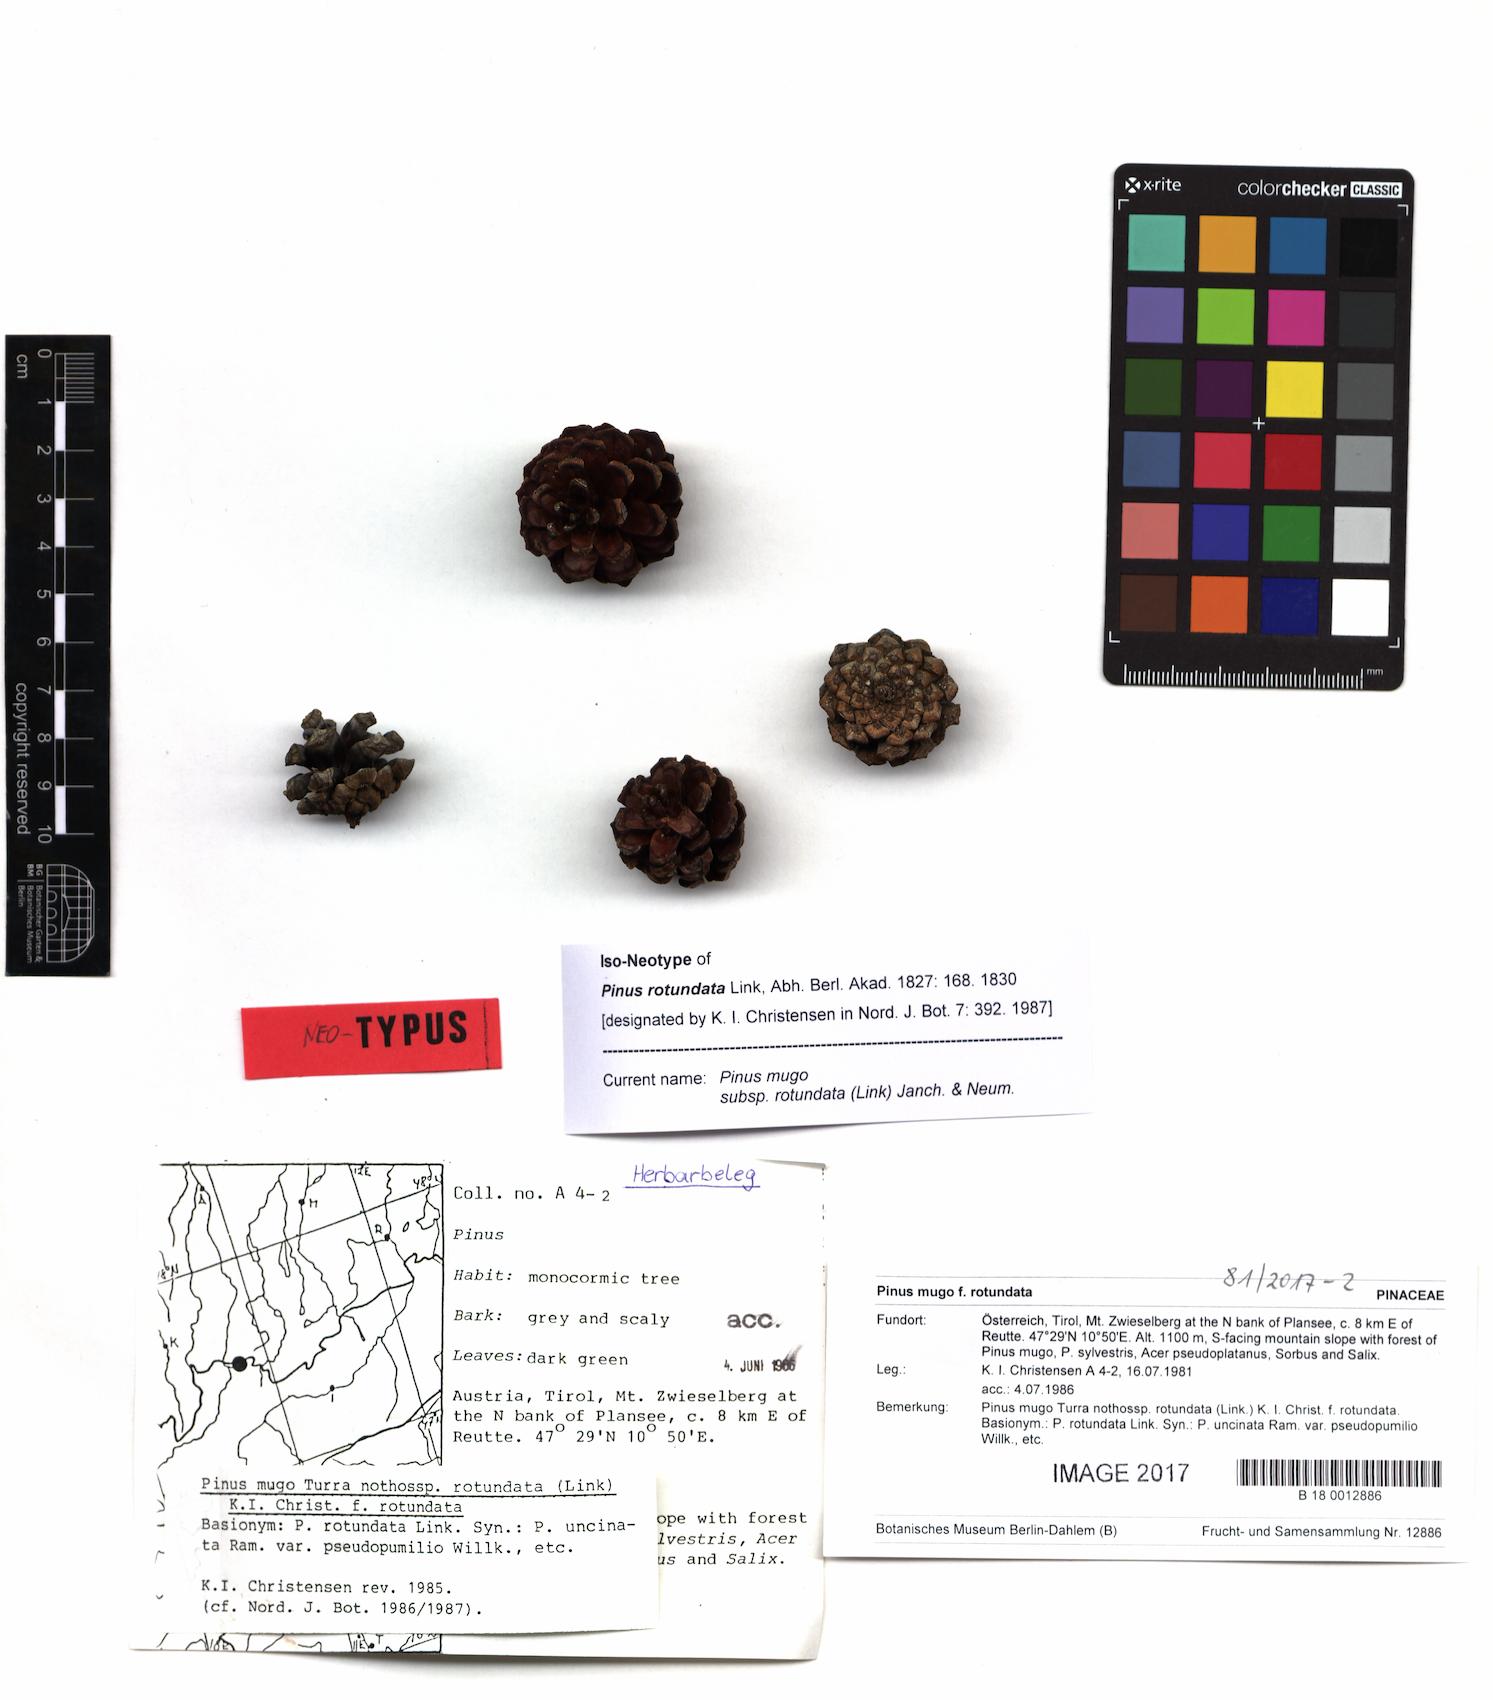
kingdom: Plantae
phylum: Tracheophyta
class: Pinopsida
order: Pinales
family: Pinaceae
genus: Pinus
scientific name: Pinus mugo
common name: Mugo pine
